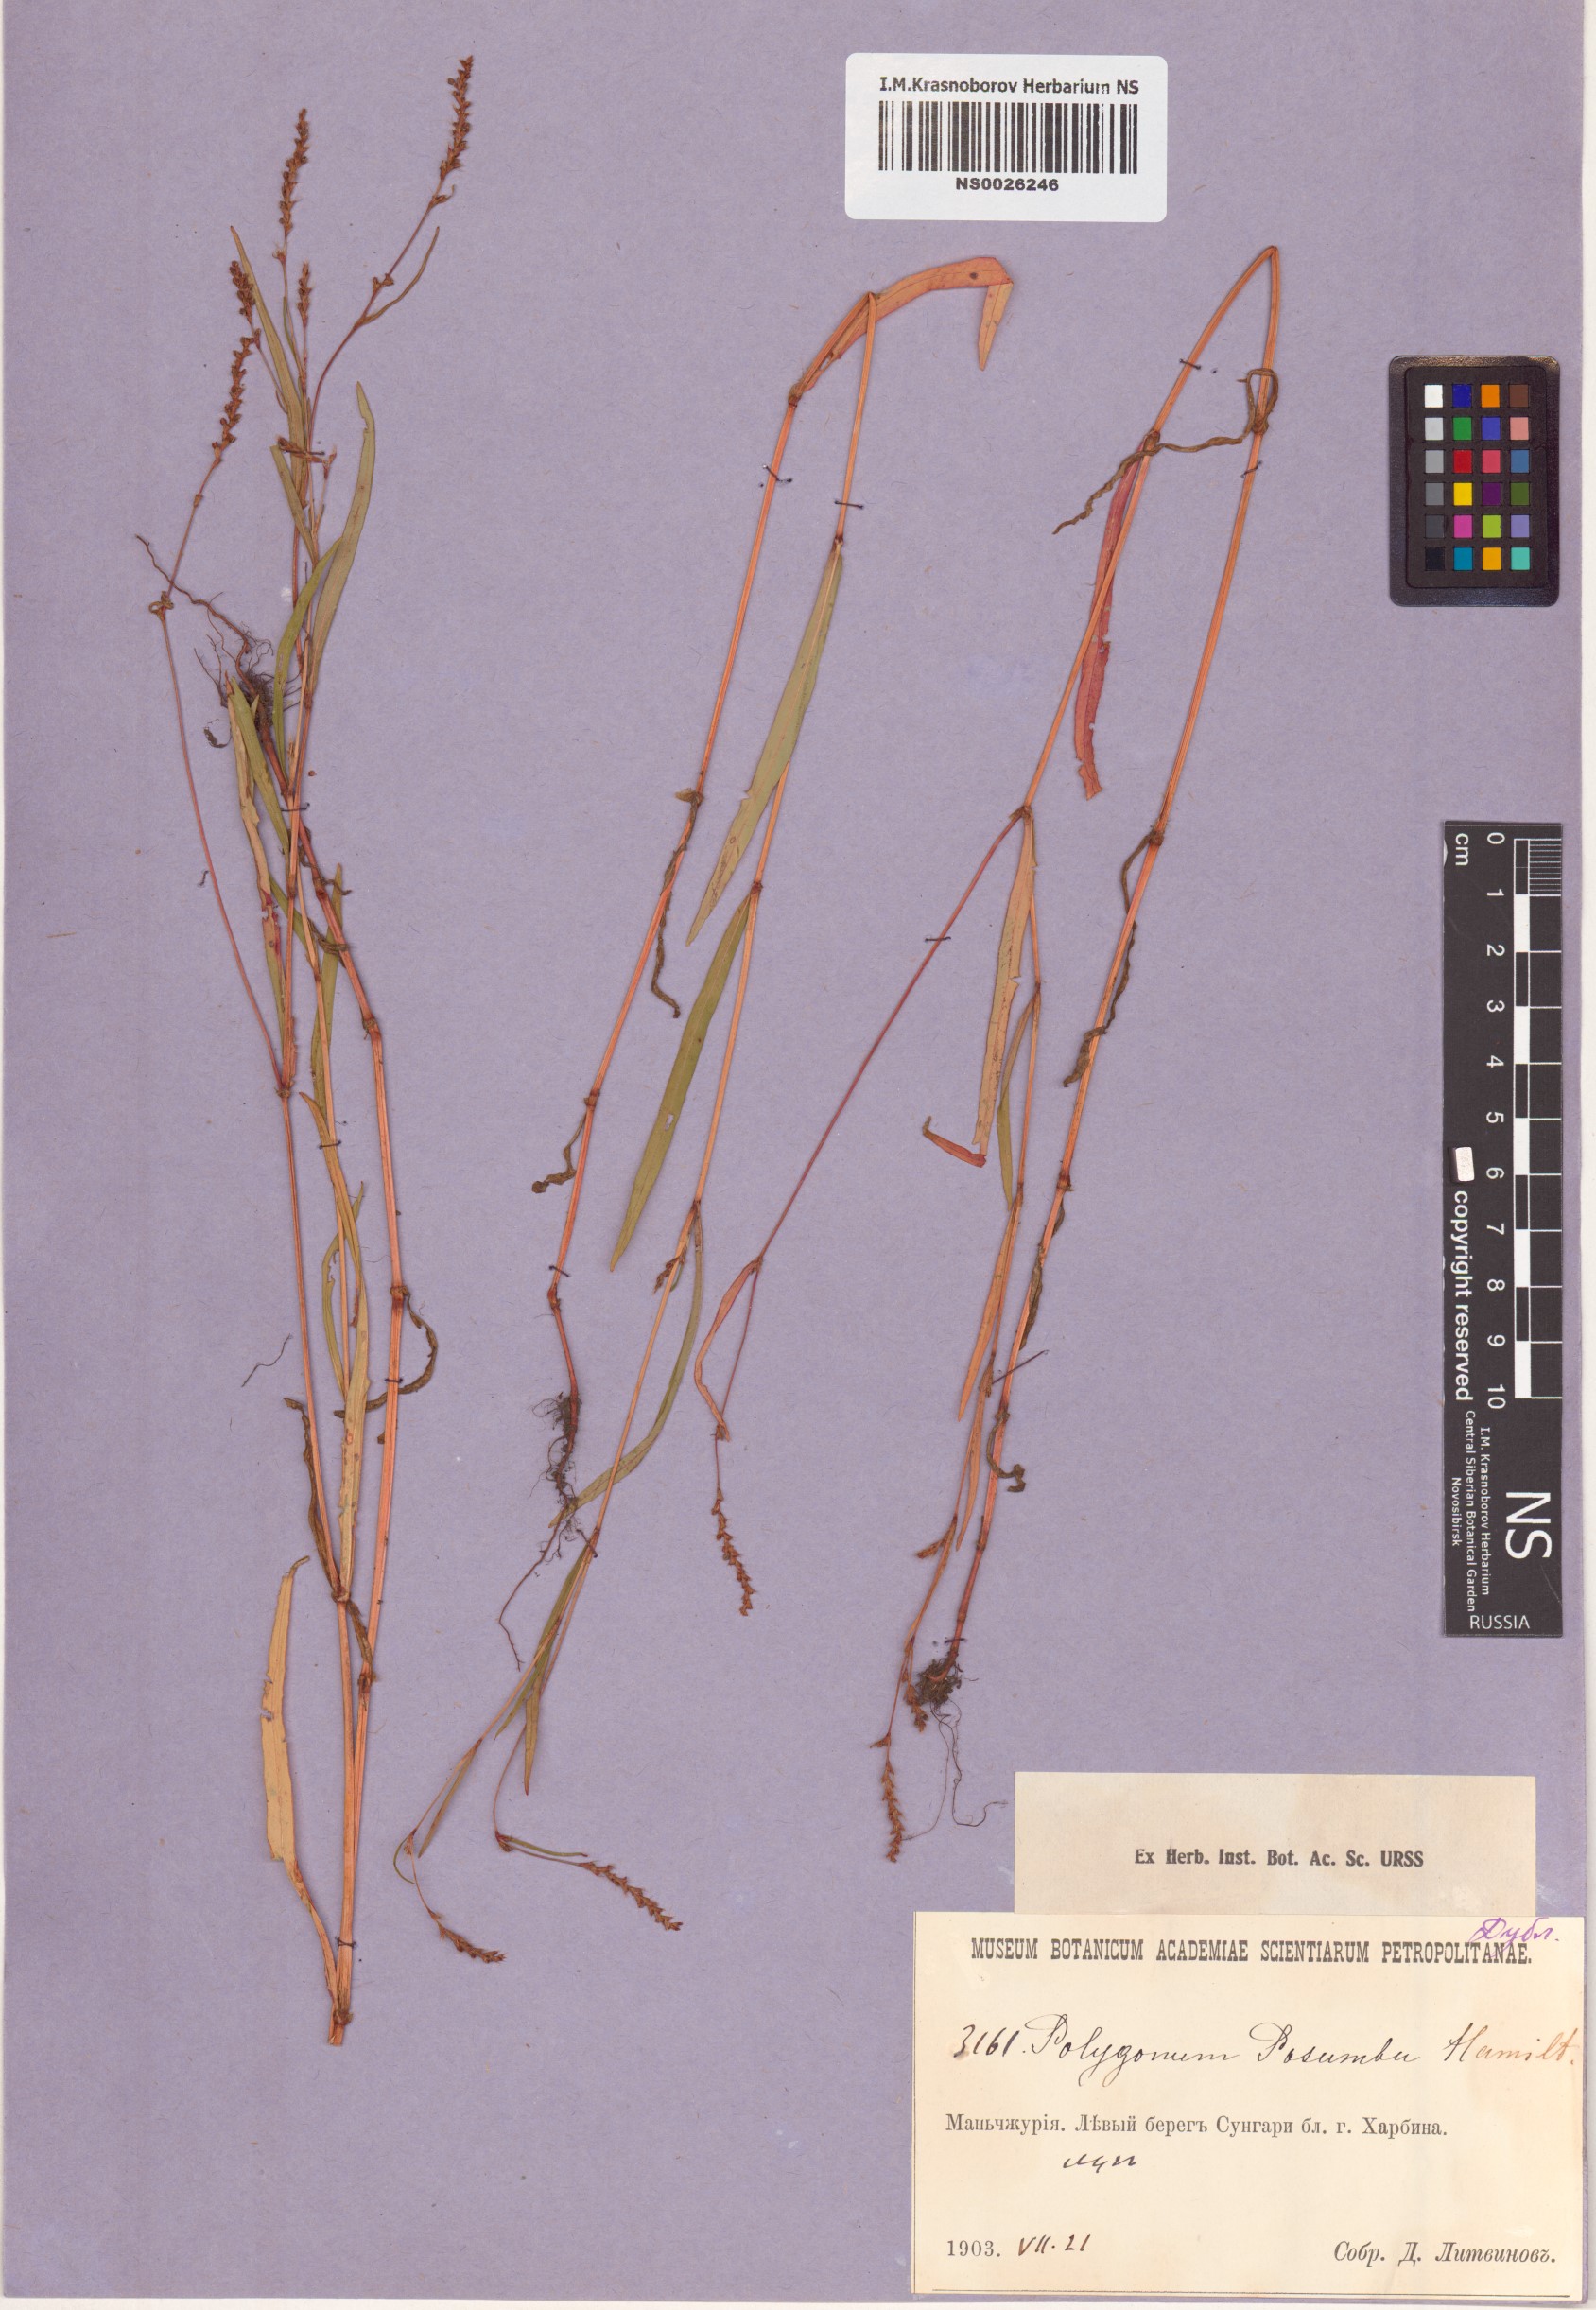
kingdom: Plantae
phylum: Tracheophyta
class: Magnoliopsida
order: Caryophyllales
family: Polygonaceae
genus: Persicaria
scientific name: Persicaria posumbu
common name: Oriental lady's thumb
